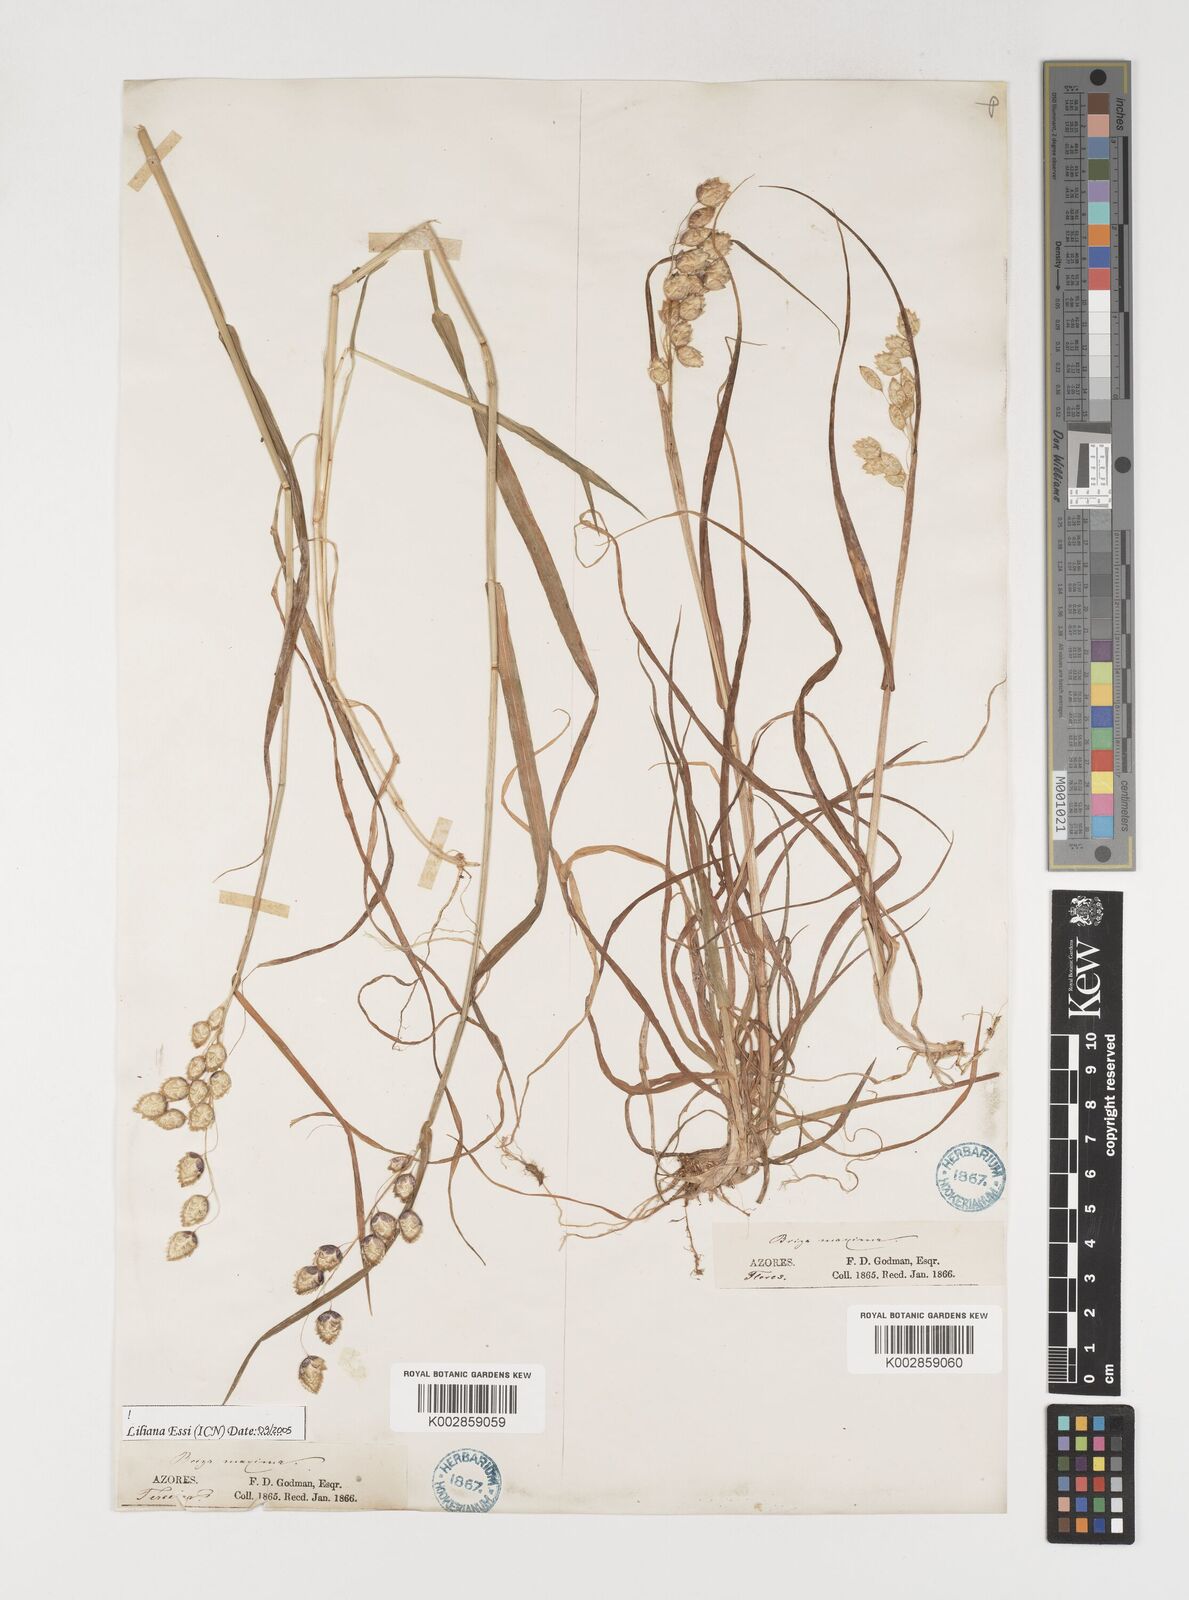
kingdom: Plantae
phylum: Tracheophyta
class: Liliopsida
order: Poales
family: Poaceae
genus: Briza
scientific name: Briza maxima
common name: Big quakinggrass
